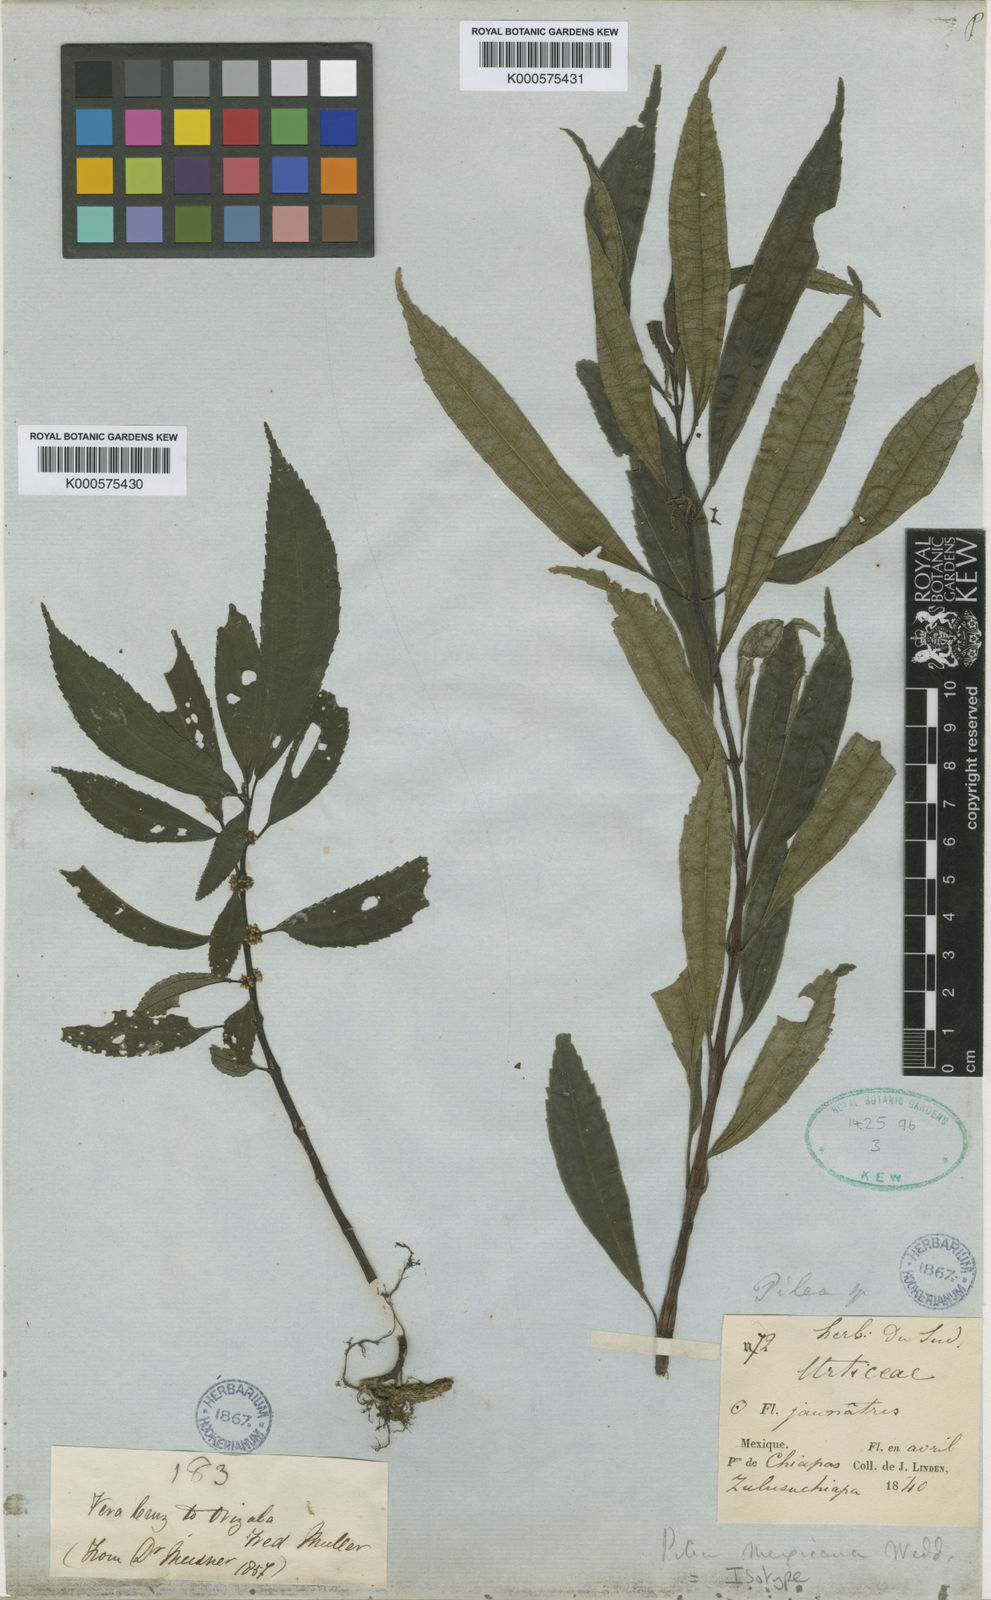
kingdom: Plantae
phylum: Tracheophyta
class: Magnoliopsida
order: Rosales
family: Urticaceae
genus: Pilea
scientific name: Pilea mexicana
